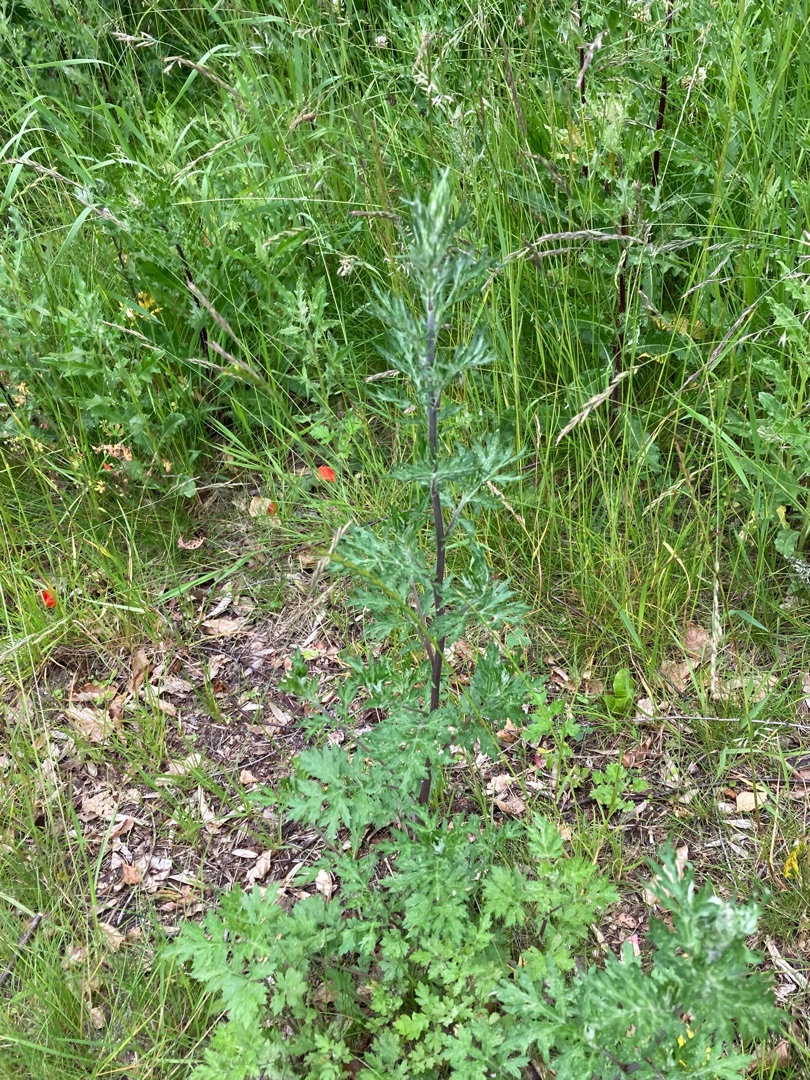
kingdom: Plantae
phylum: Tracheophyta
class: Magnoliopsida
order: Asterales
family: Asteraceae
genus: Artemisia
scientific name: Artemisia vulgaris
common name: Grå-bynke
